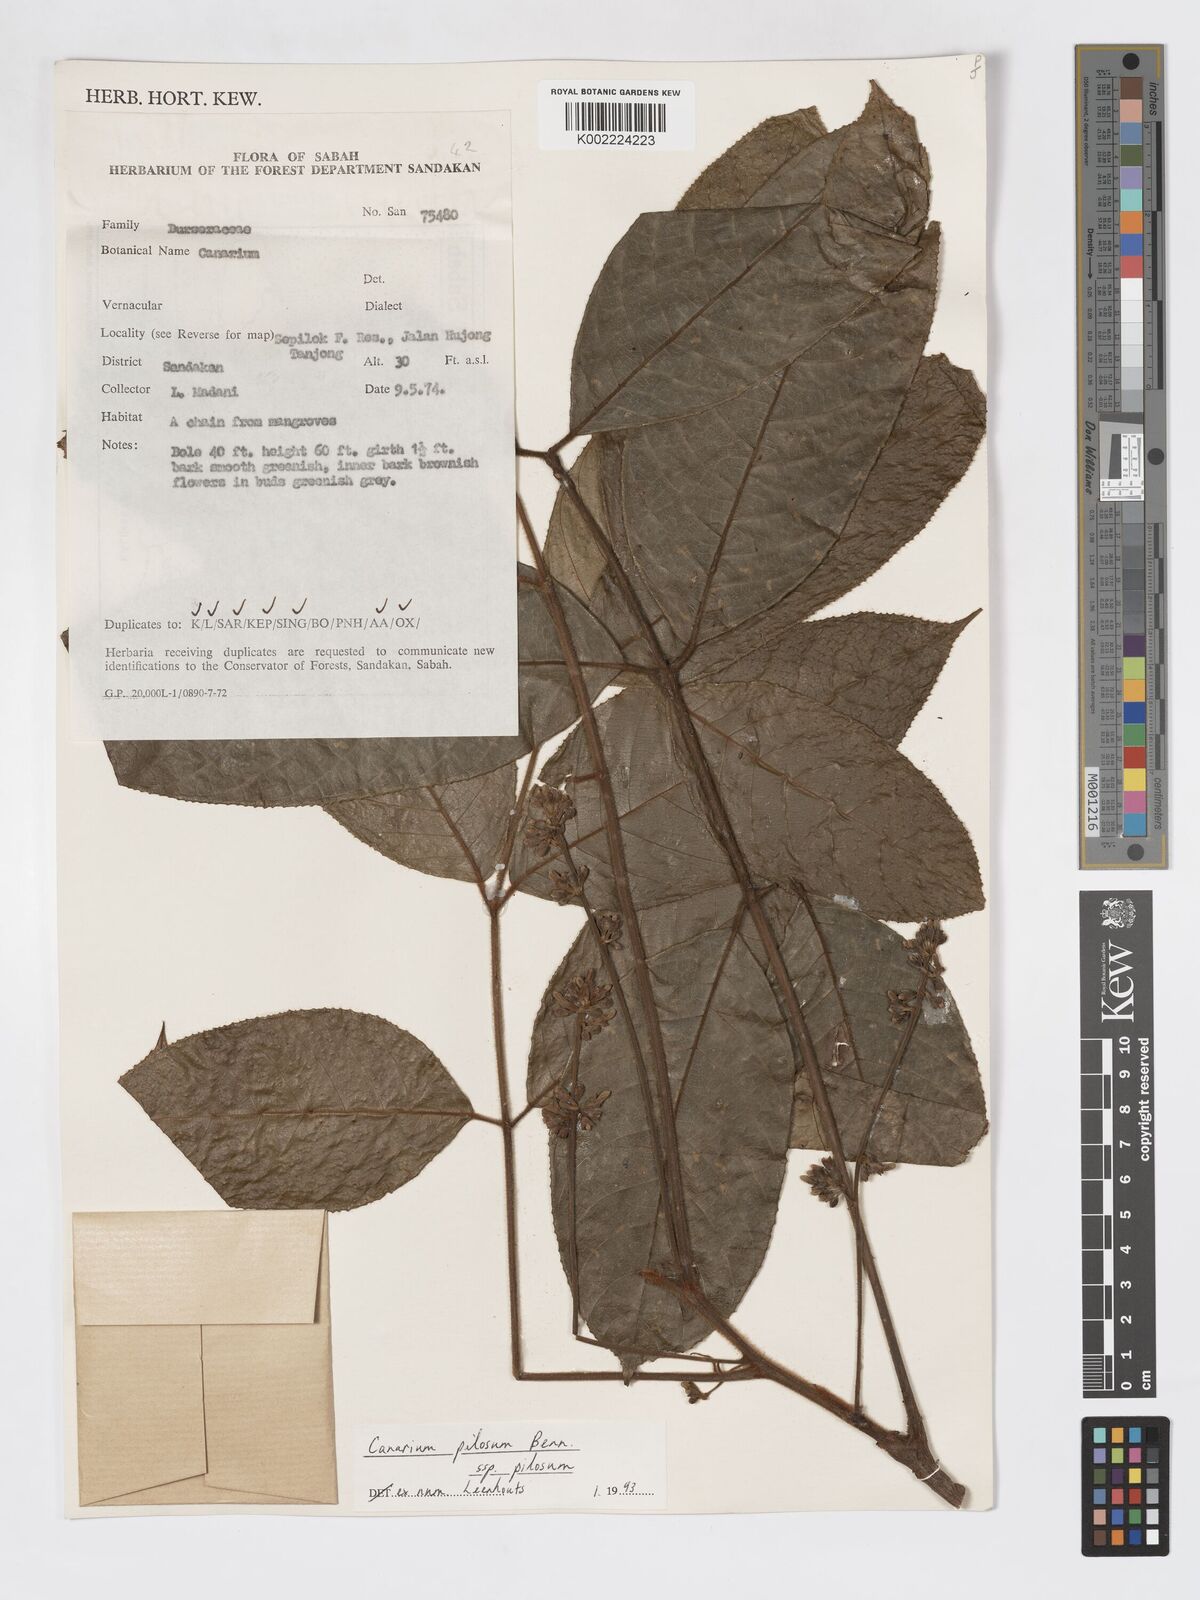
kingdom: Plantae
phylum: Tracheophyta
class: Magnoliopsida
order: Sapindales
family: Burseraceae
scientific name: Burseraceae
